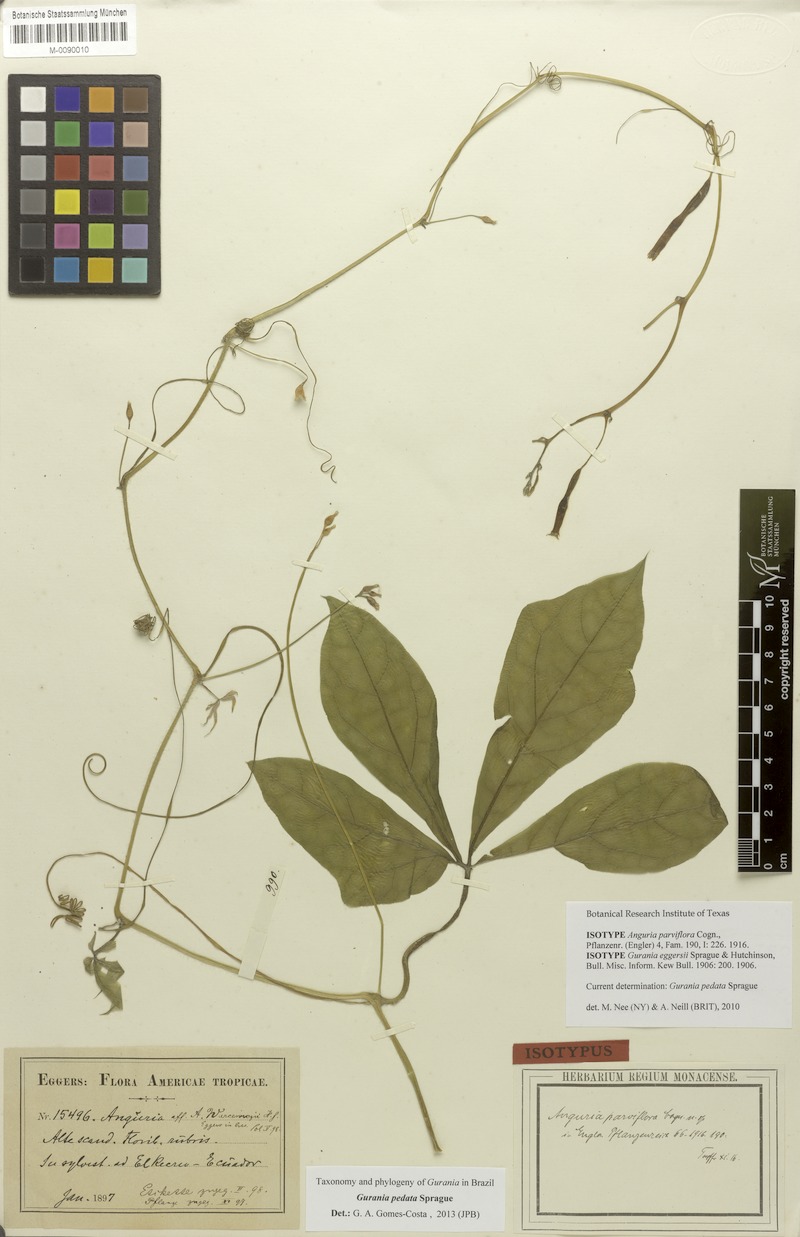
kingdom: Plantae
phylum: Tracheophyta
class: Magnoliopsida
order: Cucurbitales
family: Cucurbitaceae
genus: Gurania
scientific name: Gurania pedata
